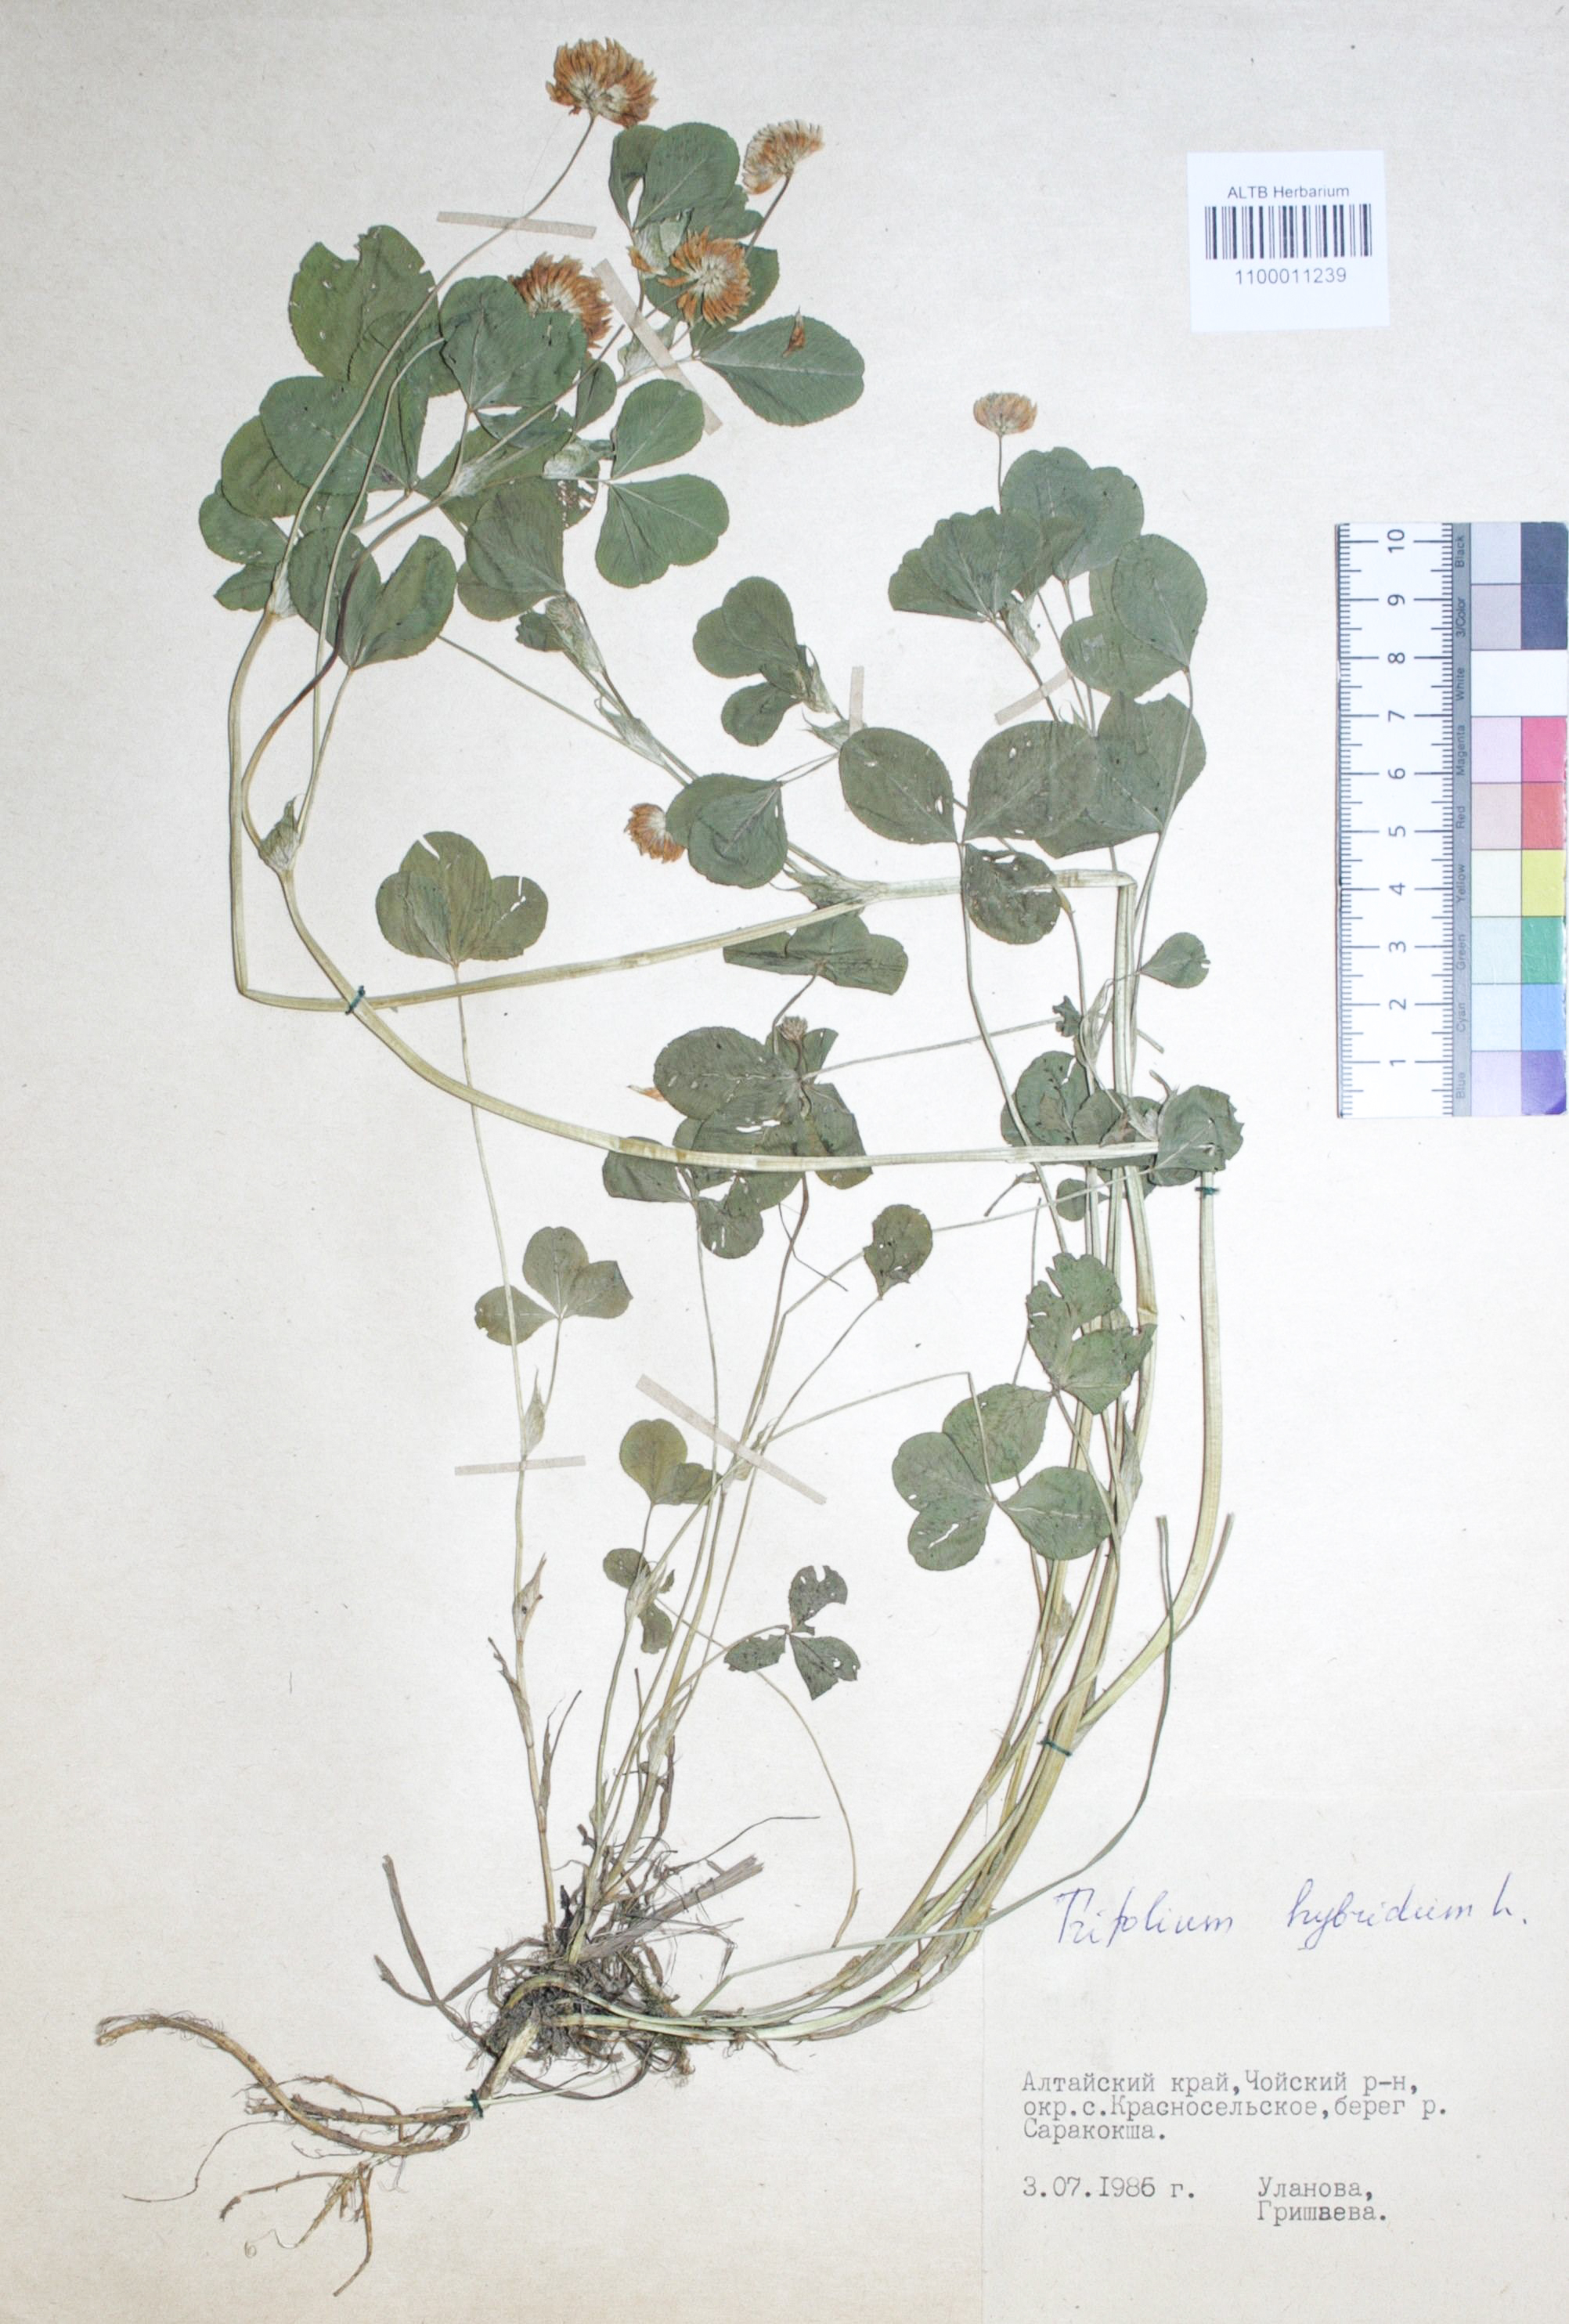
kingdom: Plantae
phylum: Tracheophyta
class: Magnoliopsida
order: Fabales
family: Fabaceae
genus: Trifolium
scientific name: Trifolium hybridum
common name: Alsike clover
